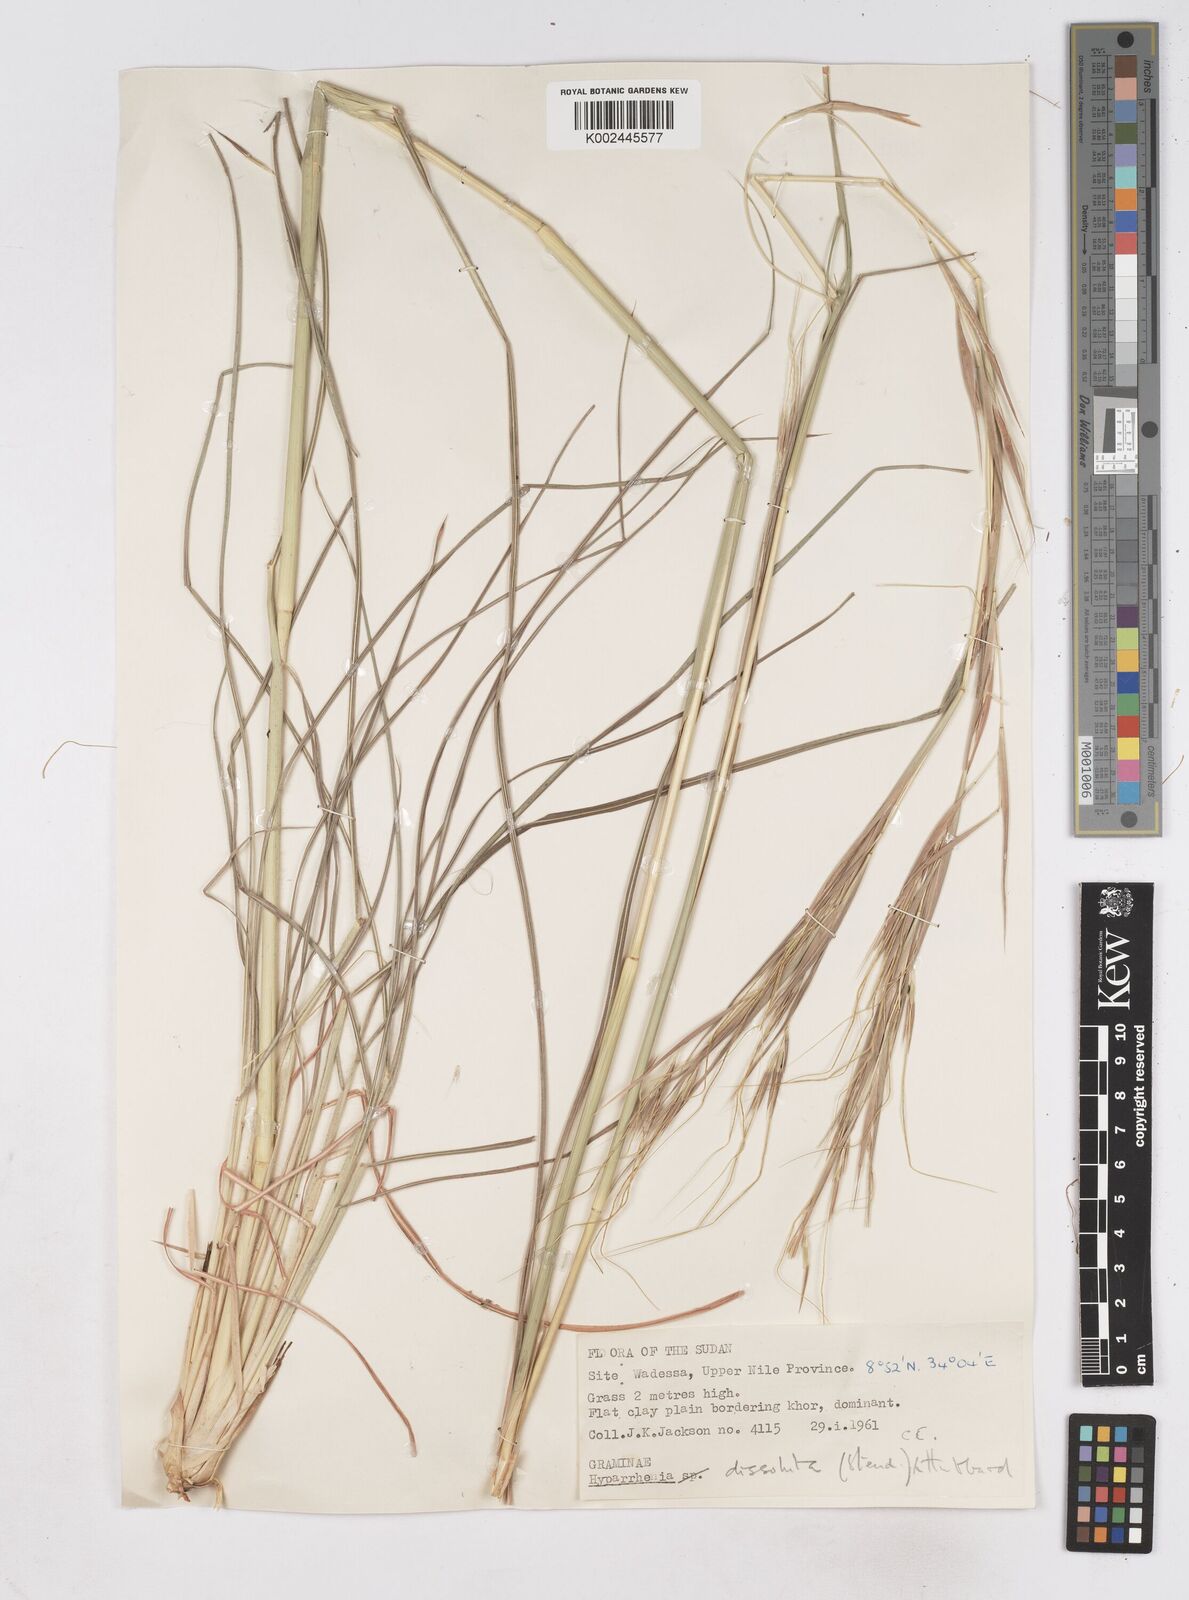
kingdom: Plantae
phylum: Tracheophyta
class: Liliopsida
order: Poales
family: Poaceae
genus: Hyperthelia
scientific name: Hyperthelia dissoluta
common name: Yellow thatching grass
